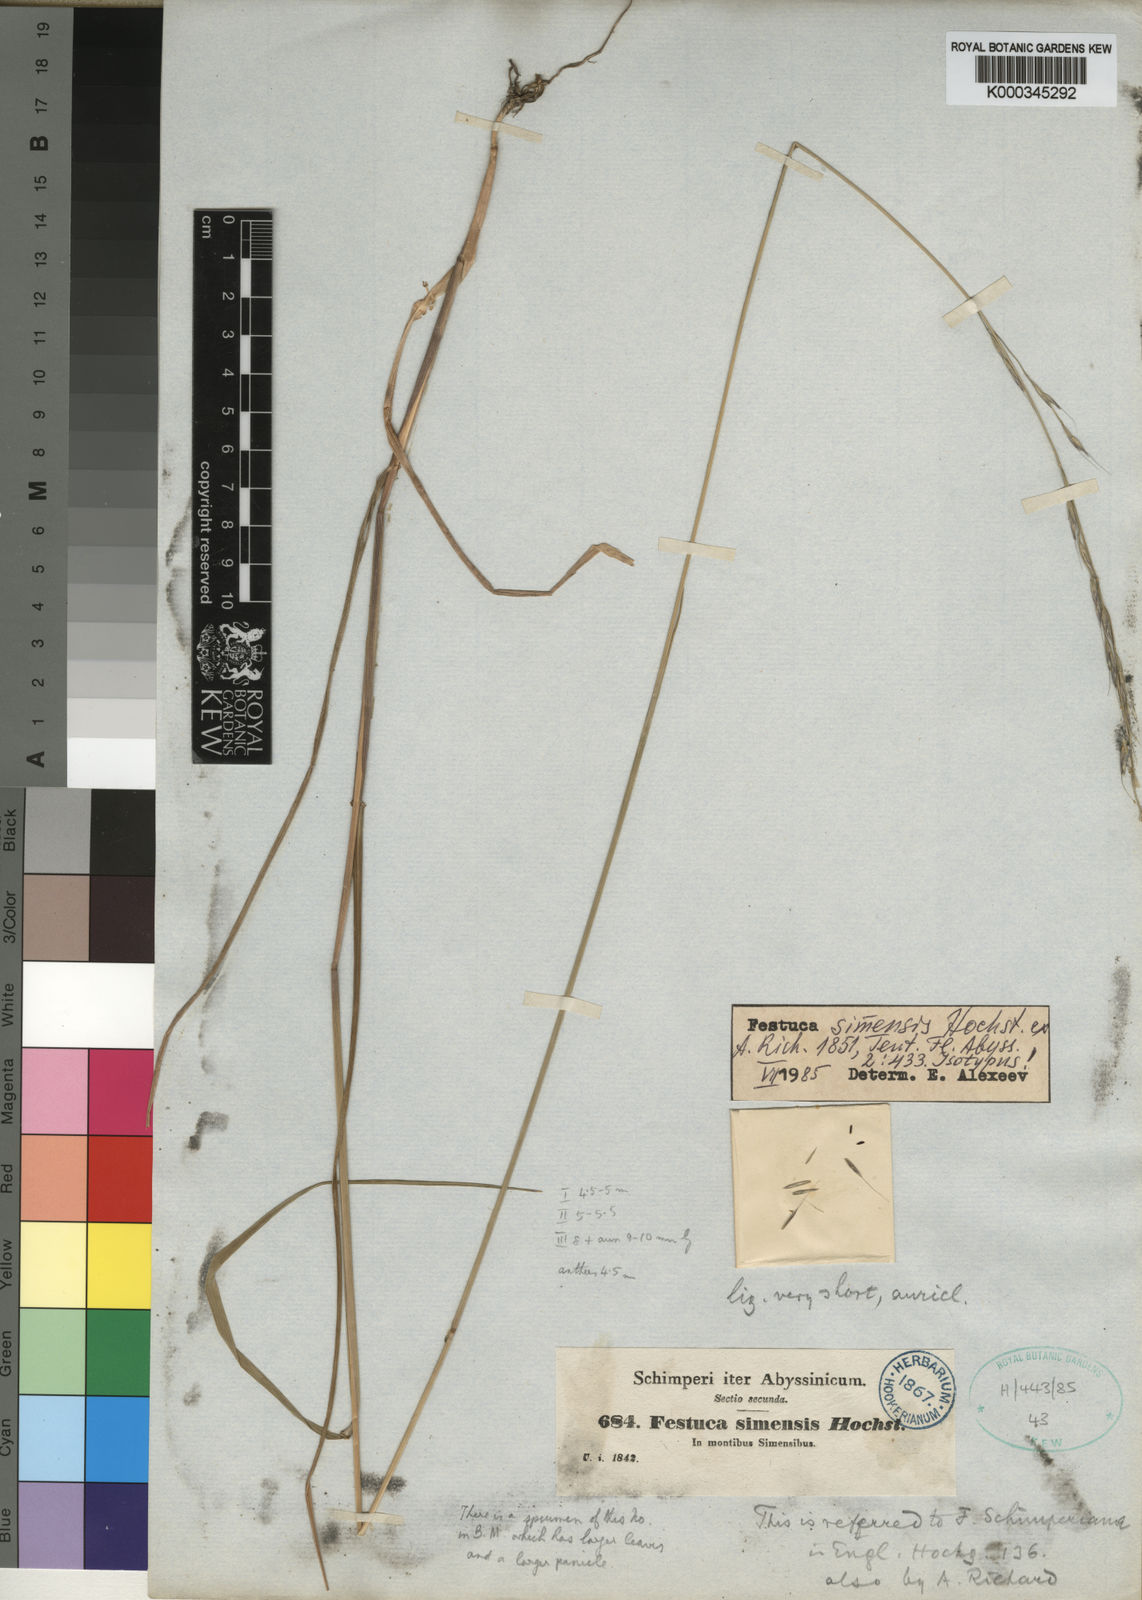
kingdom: Plantae
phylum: Tracheophyta
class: Liliopsida
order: Poales
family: Poaceae
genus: Festuca
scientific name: Festuca simensis
